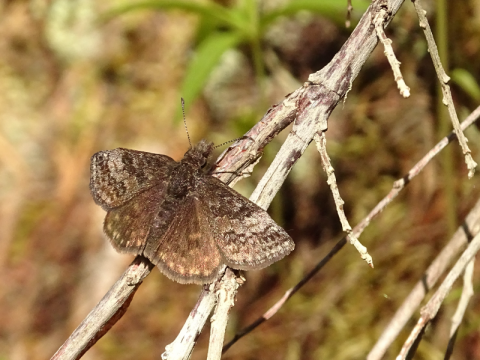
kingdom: Animalia
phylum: Arthropoda
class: Insecta
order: Lepidoptera
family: Hesperiidae
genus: Erynnis
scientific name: Erynnis icelus
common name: Dreamy Duskywing
